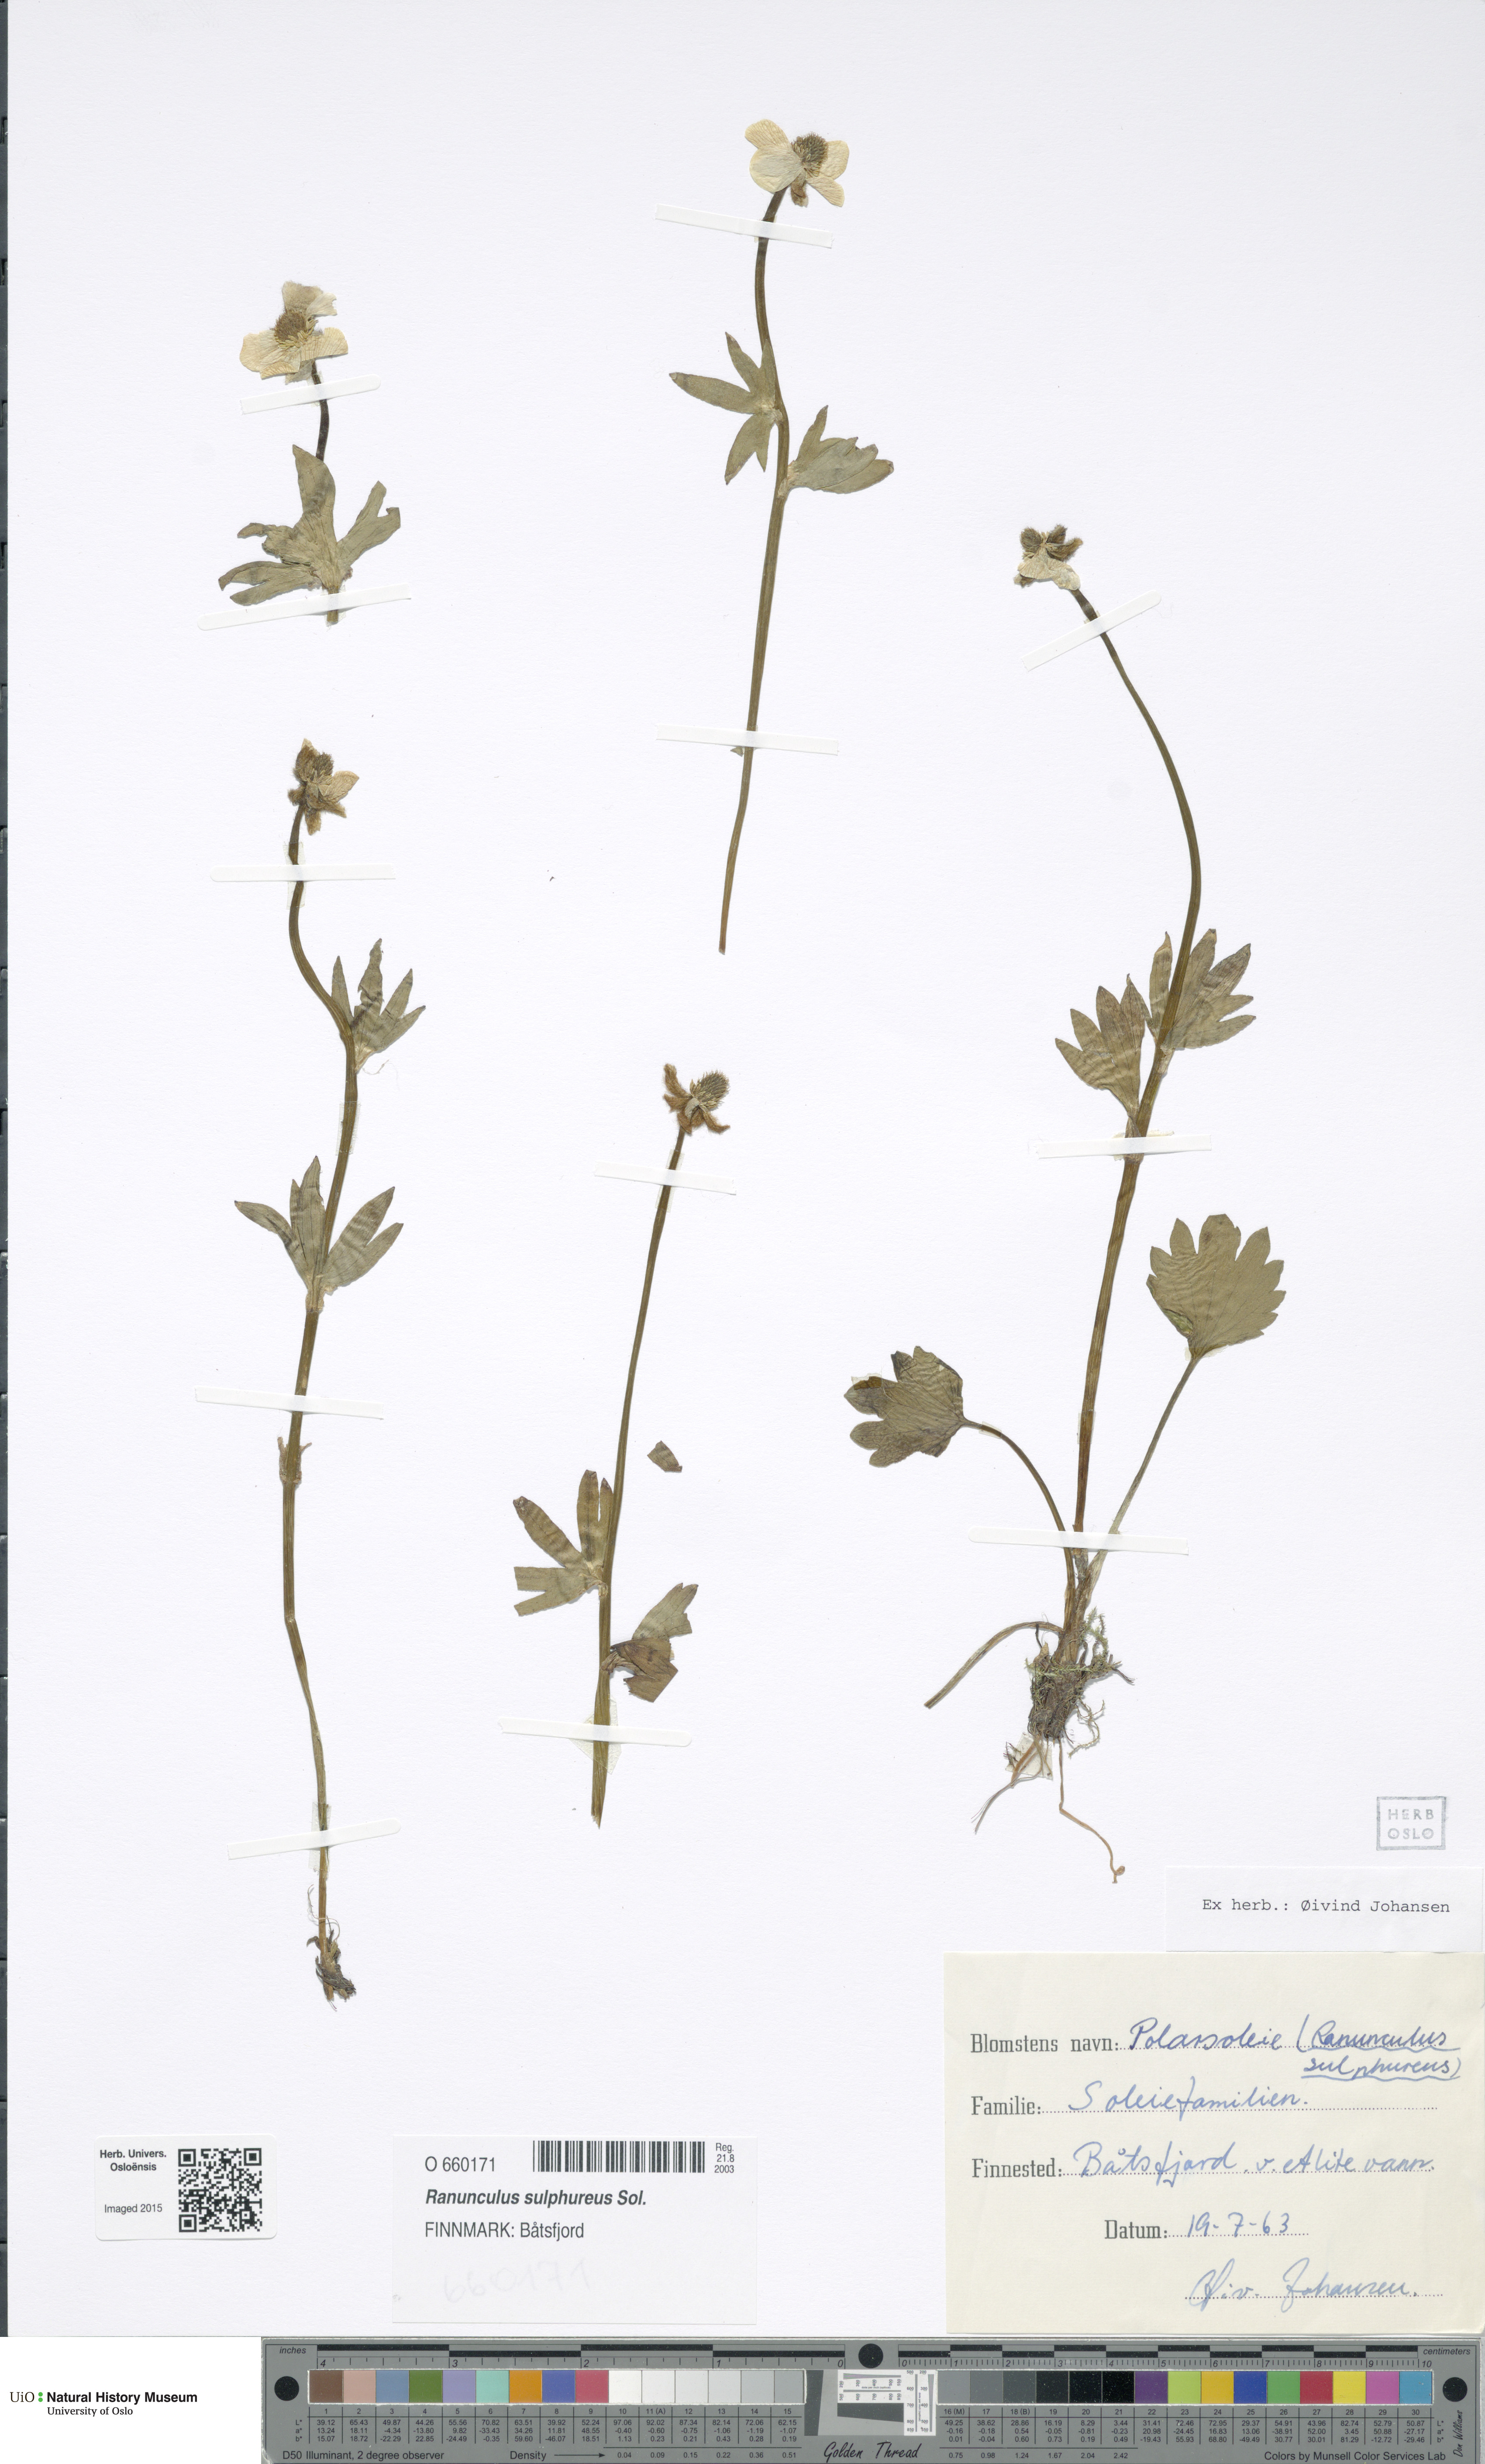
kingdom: Plantae
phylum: Tracheophyta
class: Magnoliopsida
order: Ranunculales
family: Ranunculaceae
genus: Ranunculus
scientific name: Ranunculus sulphureus
